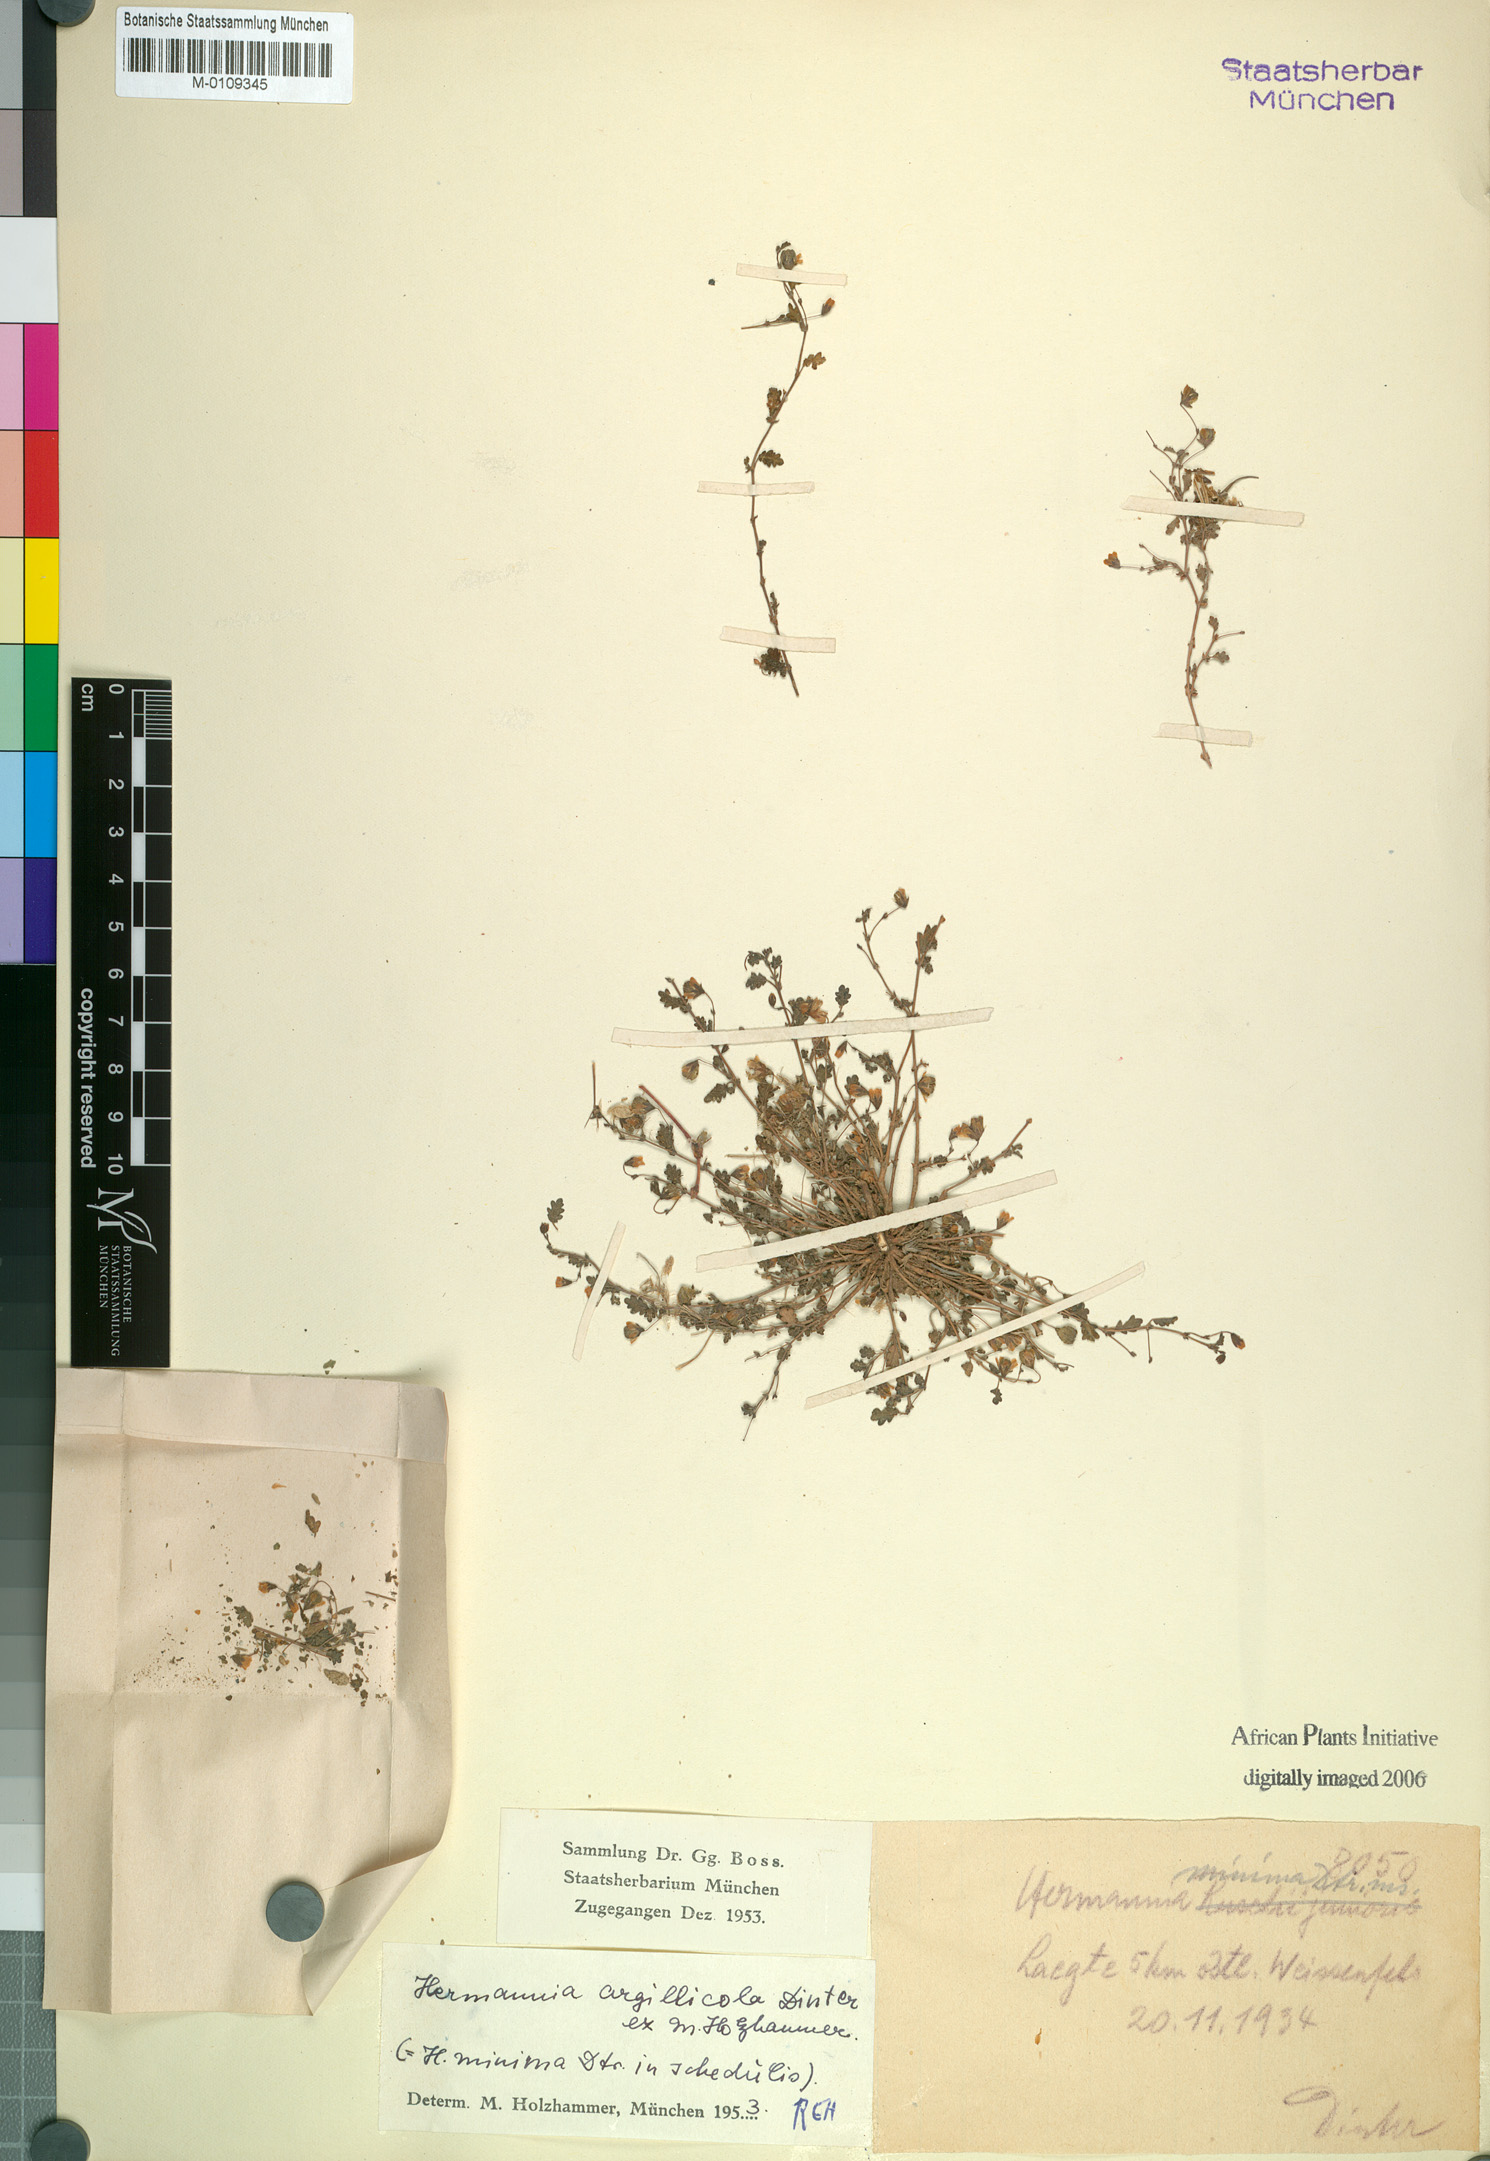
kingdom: Plantae
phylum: Tracheophyta
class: Magnoliopsida
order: Malvales
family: Malvaceae
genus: Hermannia
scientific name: Hermannia argillicola
